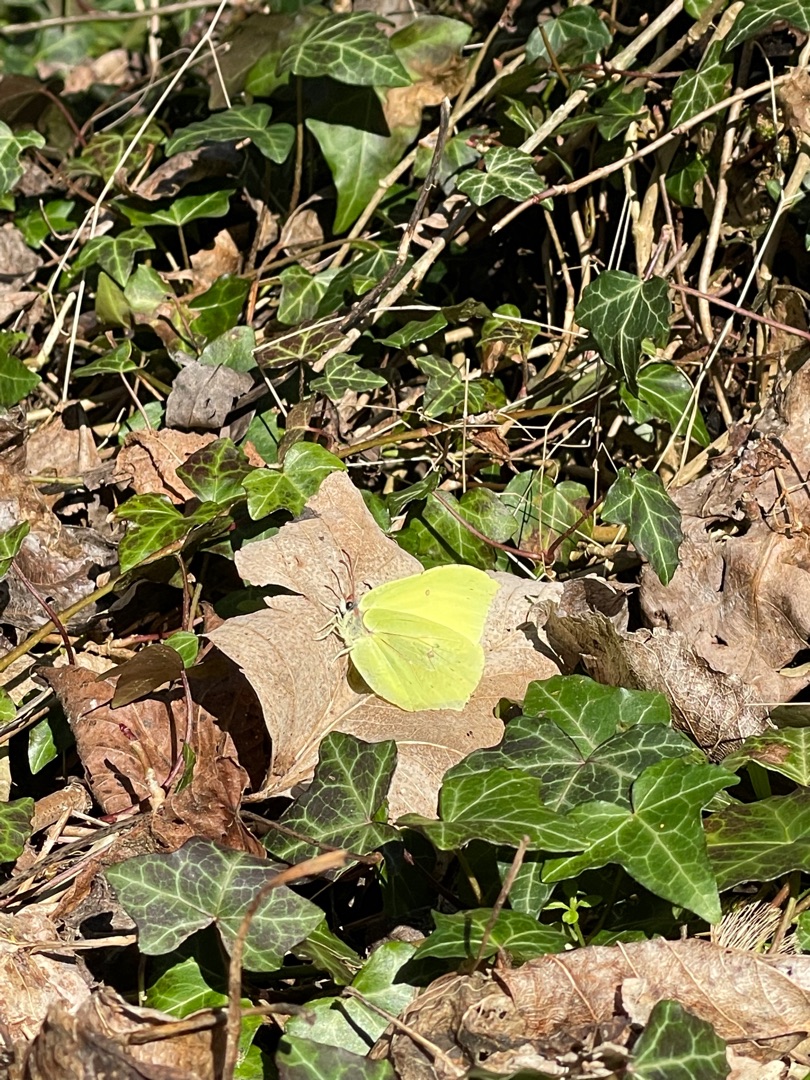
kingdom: Animalia
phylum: Arthropoda
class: Insecta
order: Lepidoptera
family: Pieridae
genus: Gonepteryx
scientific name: Gonepteryx rhamni
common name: Citronsommerfugl
